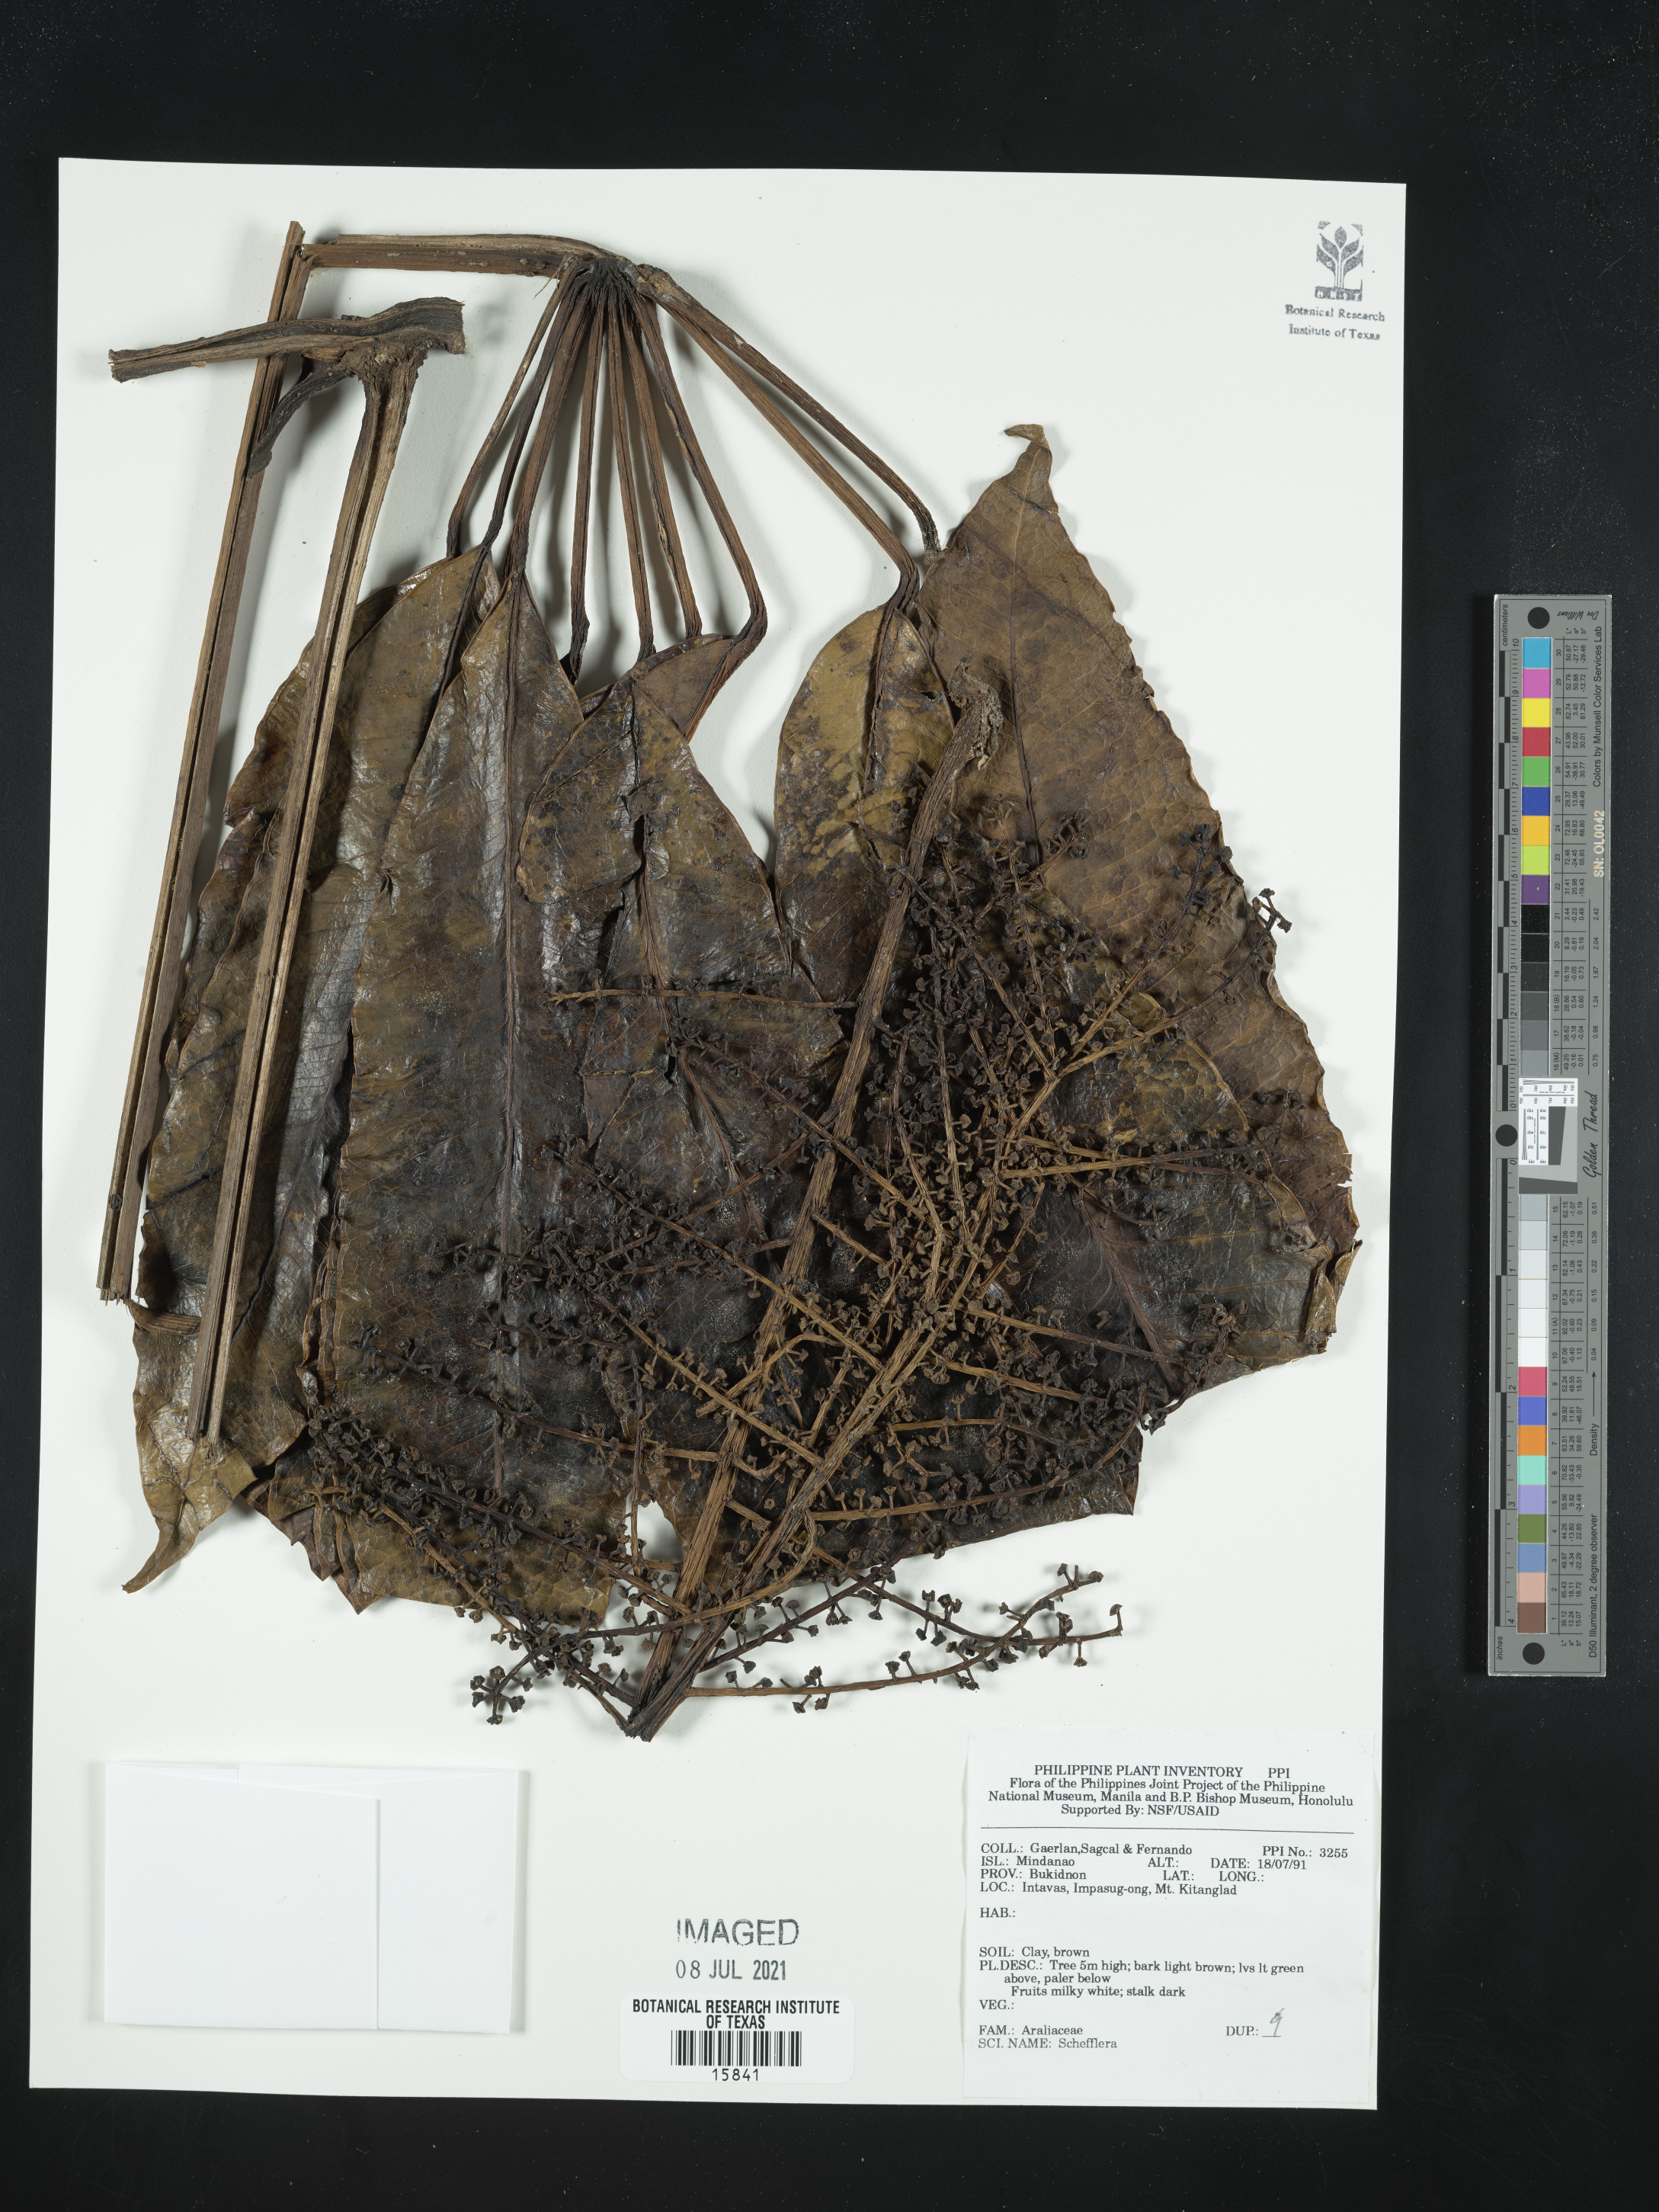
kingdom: Plantae
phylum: Tracheophyta
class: Magnoliopsida
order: Apiales
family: Araliaceae
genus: Schefflera
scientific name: Schefflera
